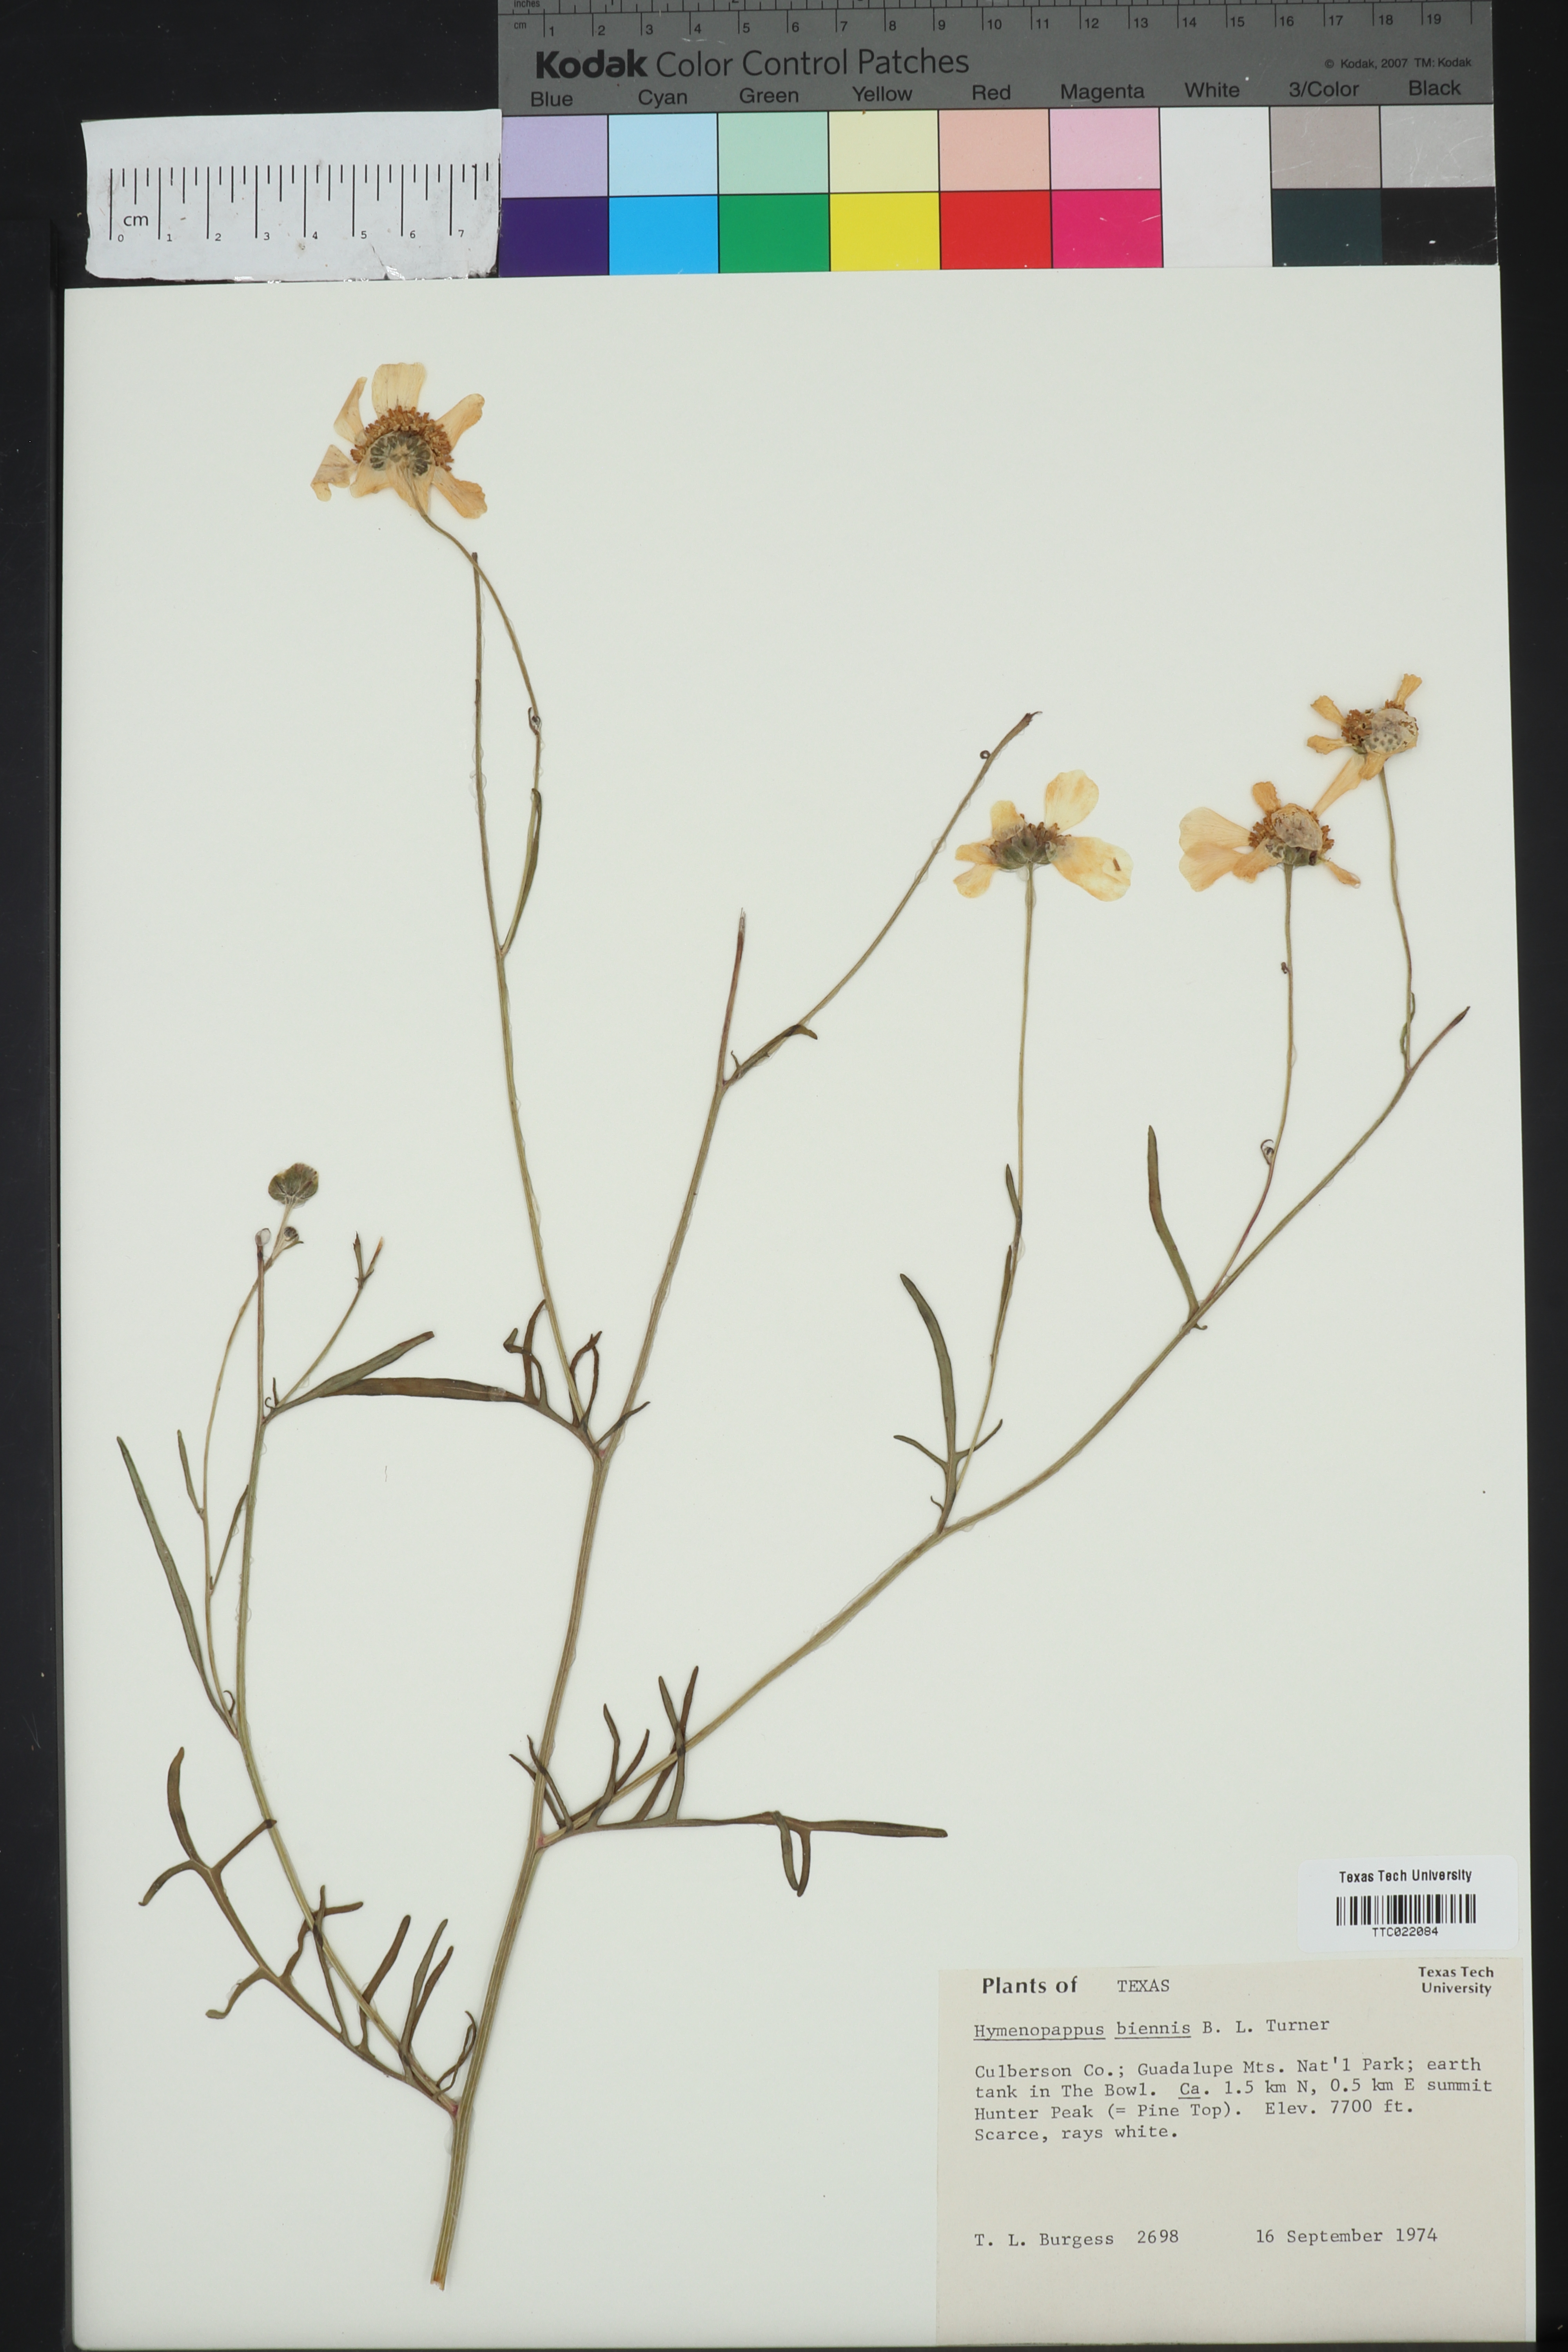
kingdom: Plantae
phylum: Tracheophyta
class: Magnoliopsida
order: Asterales
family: Asteraceae
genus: Hymenopappus
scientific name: Hymenopappus biennis
